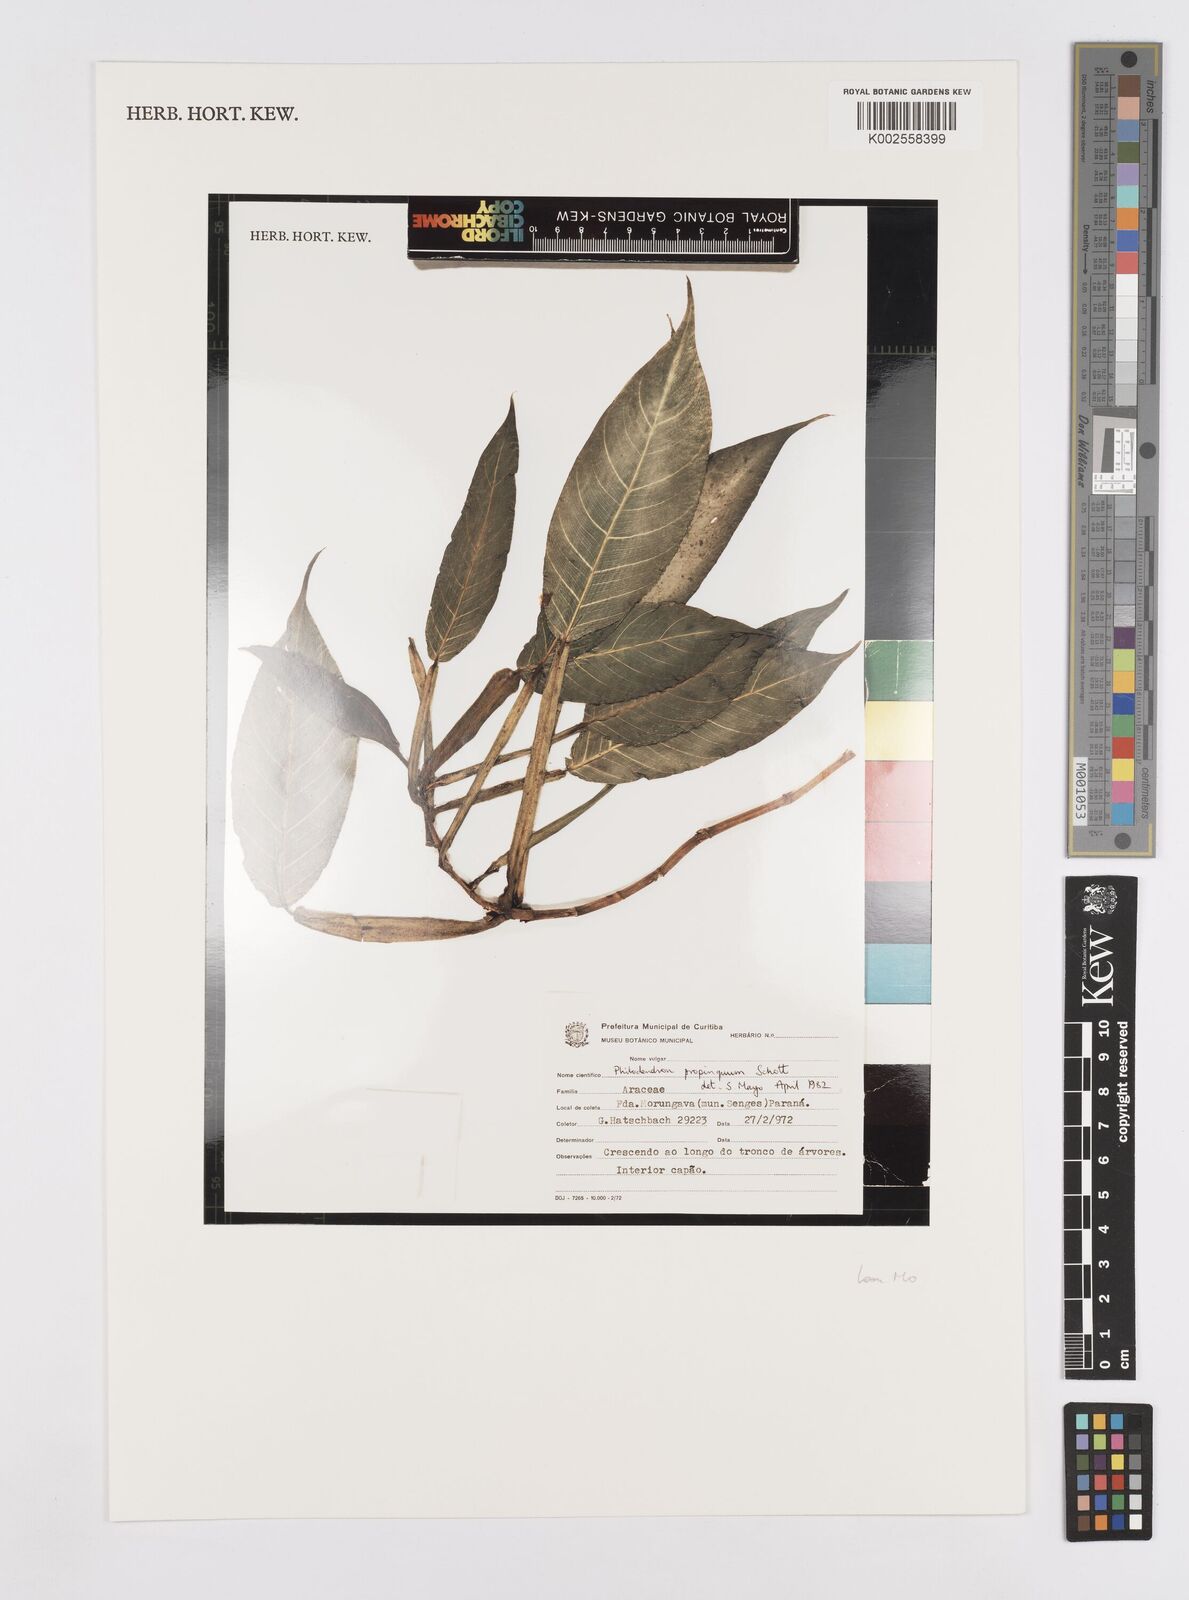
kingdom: Plantae
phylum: Tracheophyta
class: Liliopsida
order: Alismatales
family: Araceae
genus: Philodendron
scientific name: Philodendron propinquum
